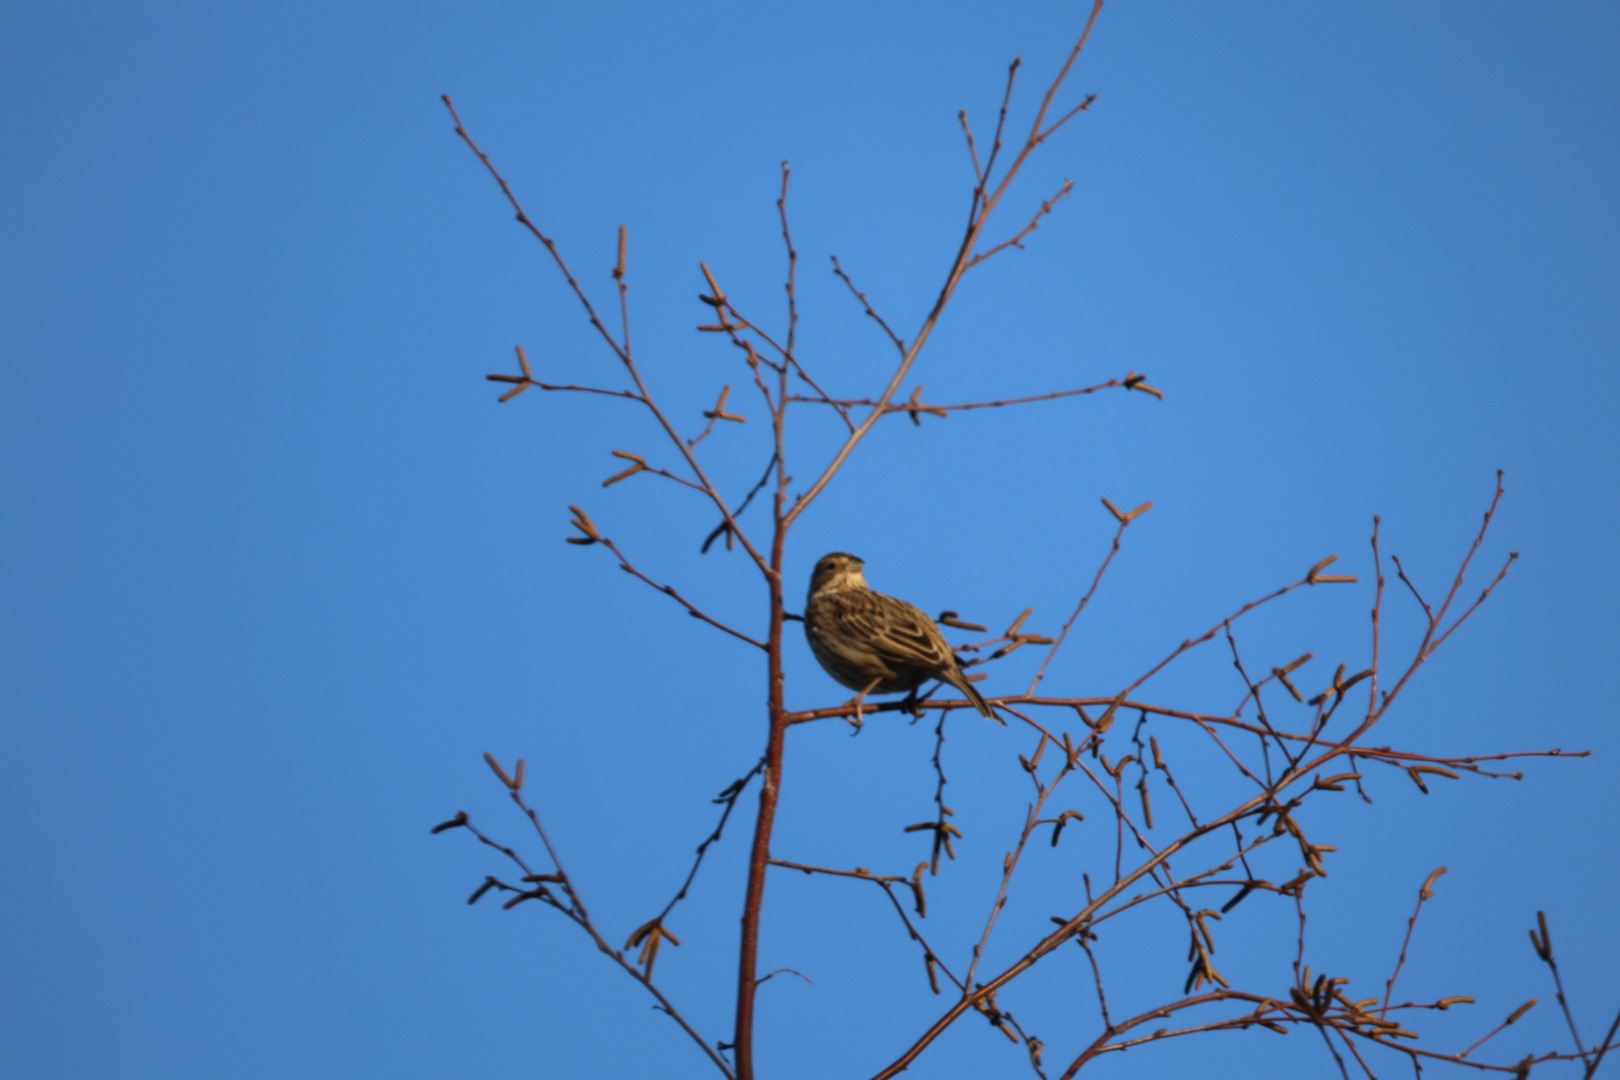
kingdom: Animalia
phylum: Chordata
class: Aves
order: Passeriformes
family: Emberizidae
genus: Emberiza
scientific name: Emberiza calandra
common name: Bomlærke
